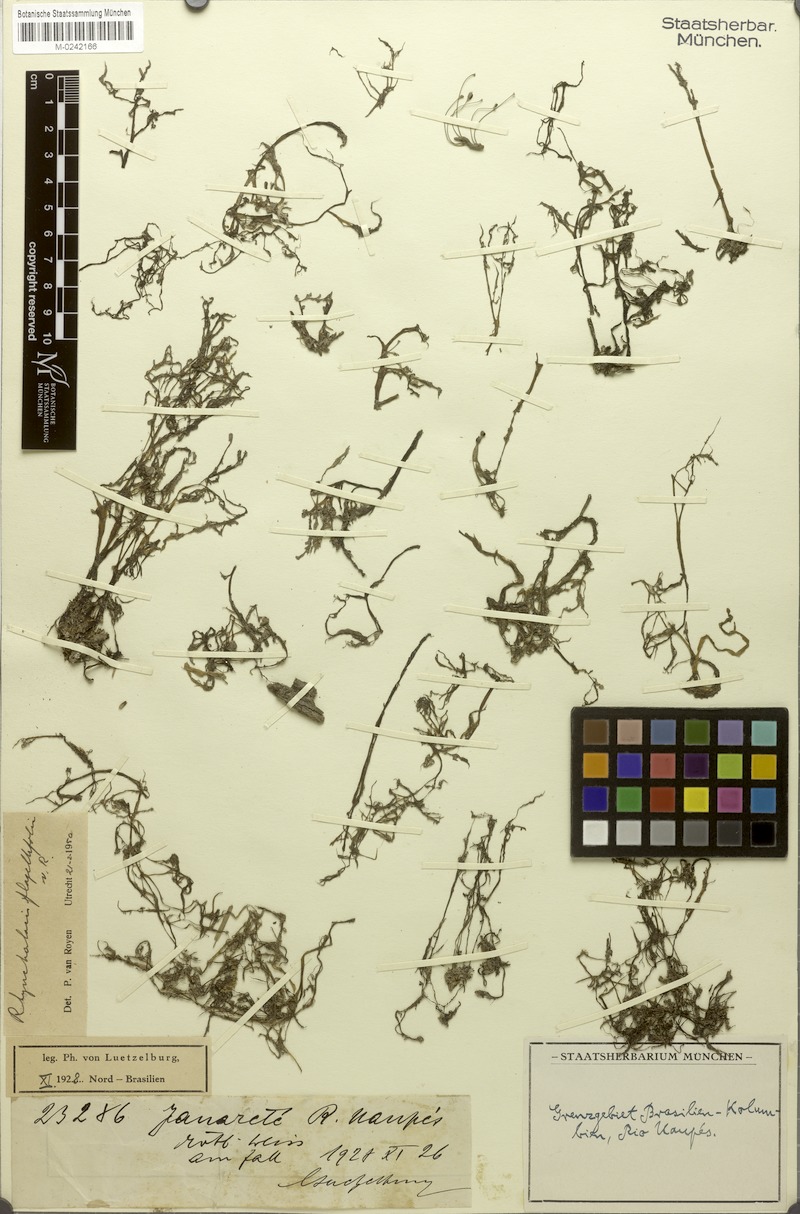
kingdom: Plantae
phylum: Tracheophyta
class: Magnoliopsida
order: Malpighiales
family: Podostemaceae
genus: Rhyncholacis
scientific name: Rhyncholacis flagellifolia
